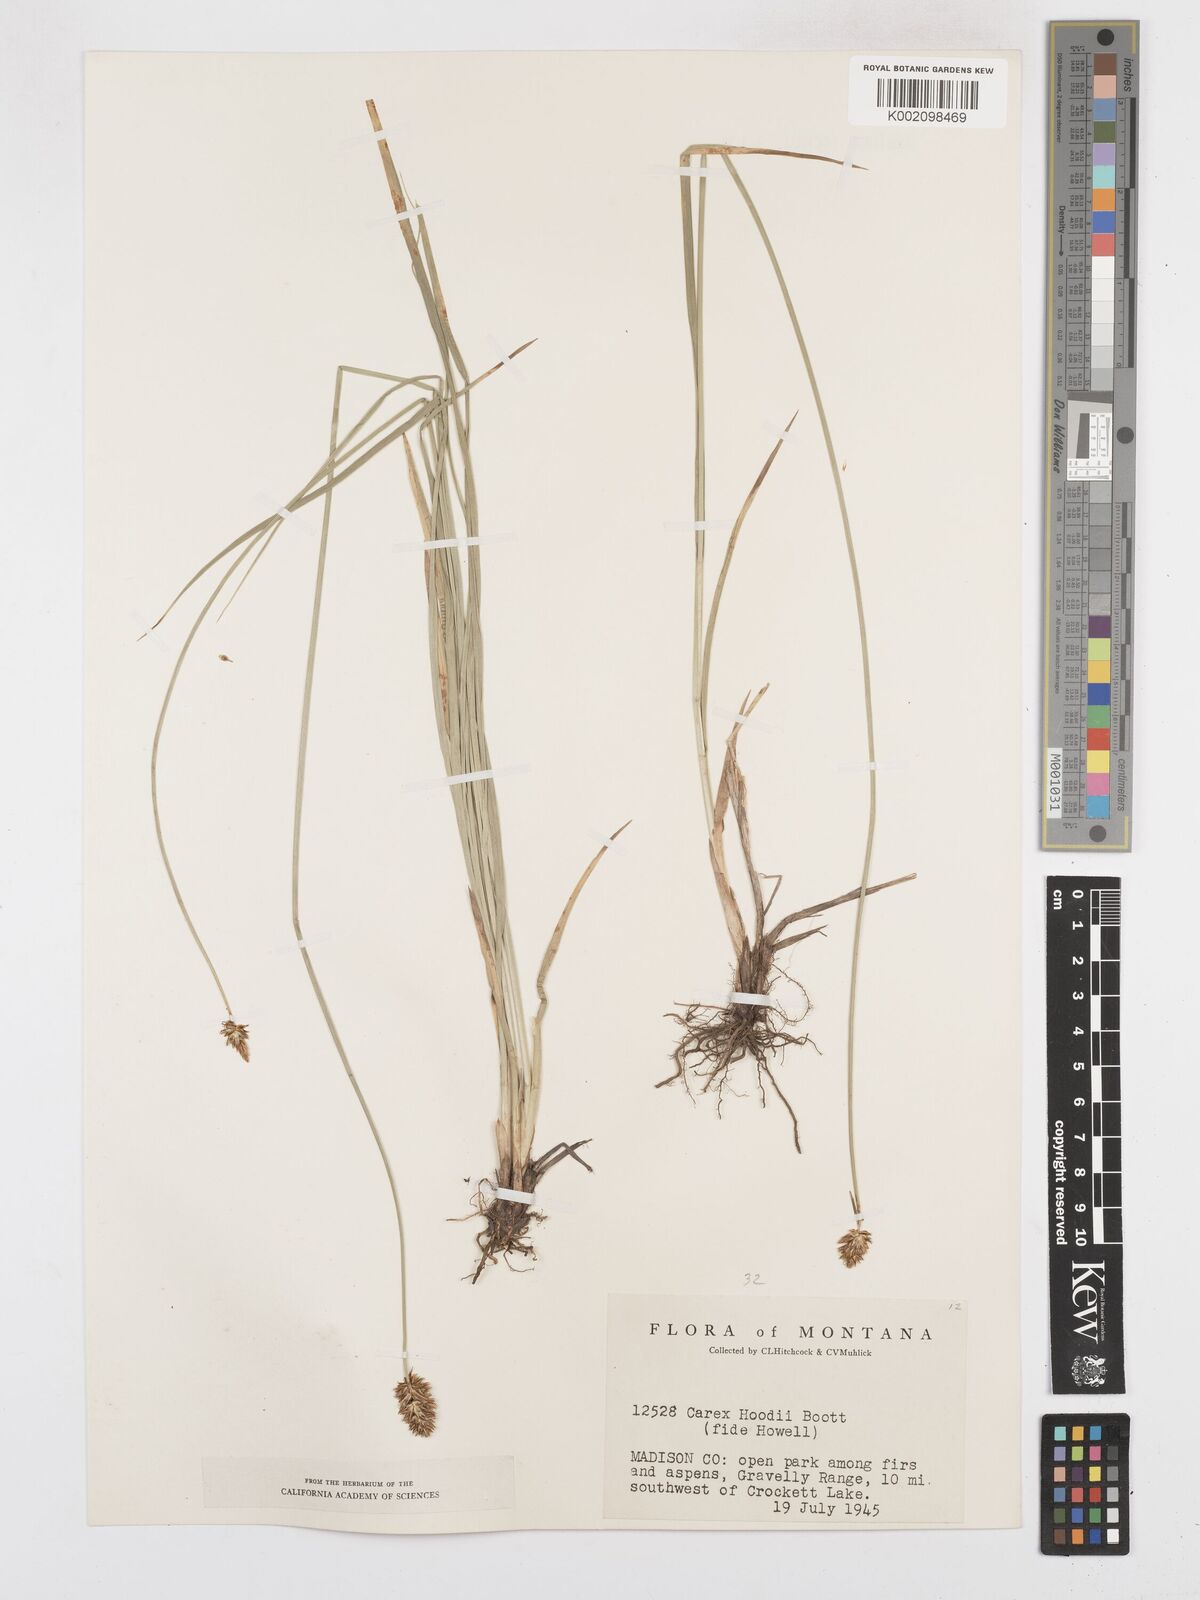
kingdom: Plantae
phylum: Tracheophyta
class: Liliopsida
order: Poales
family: Cyperaceae
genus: Carex
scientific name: Carex hoodii
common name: Hood's sedge
